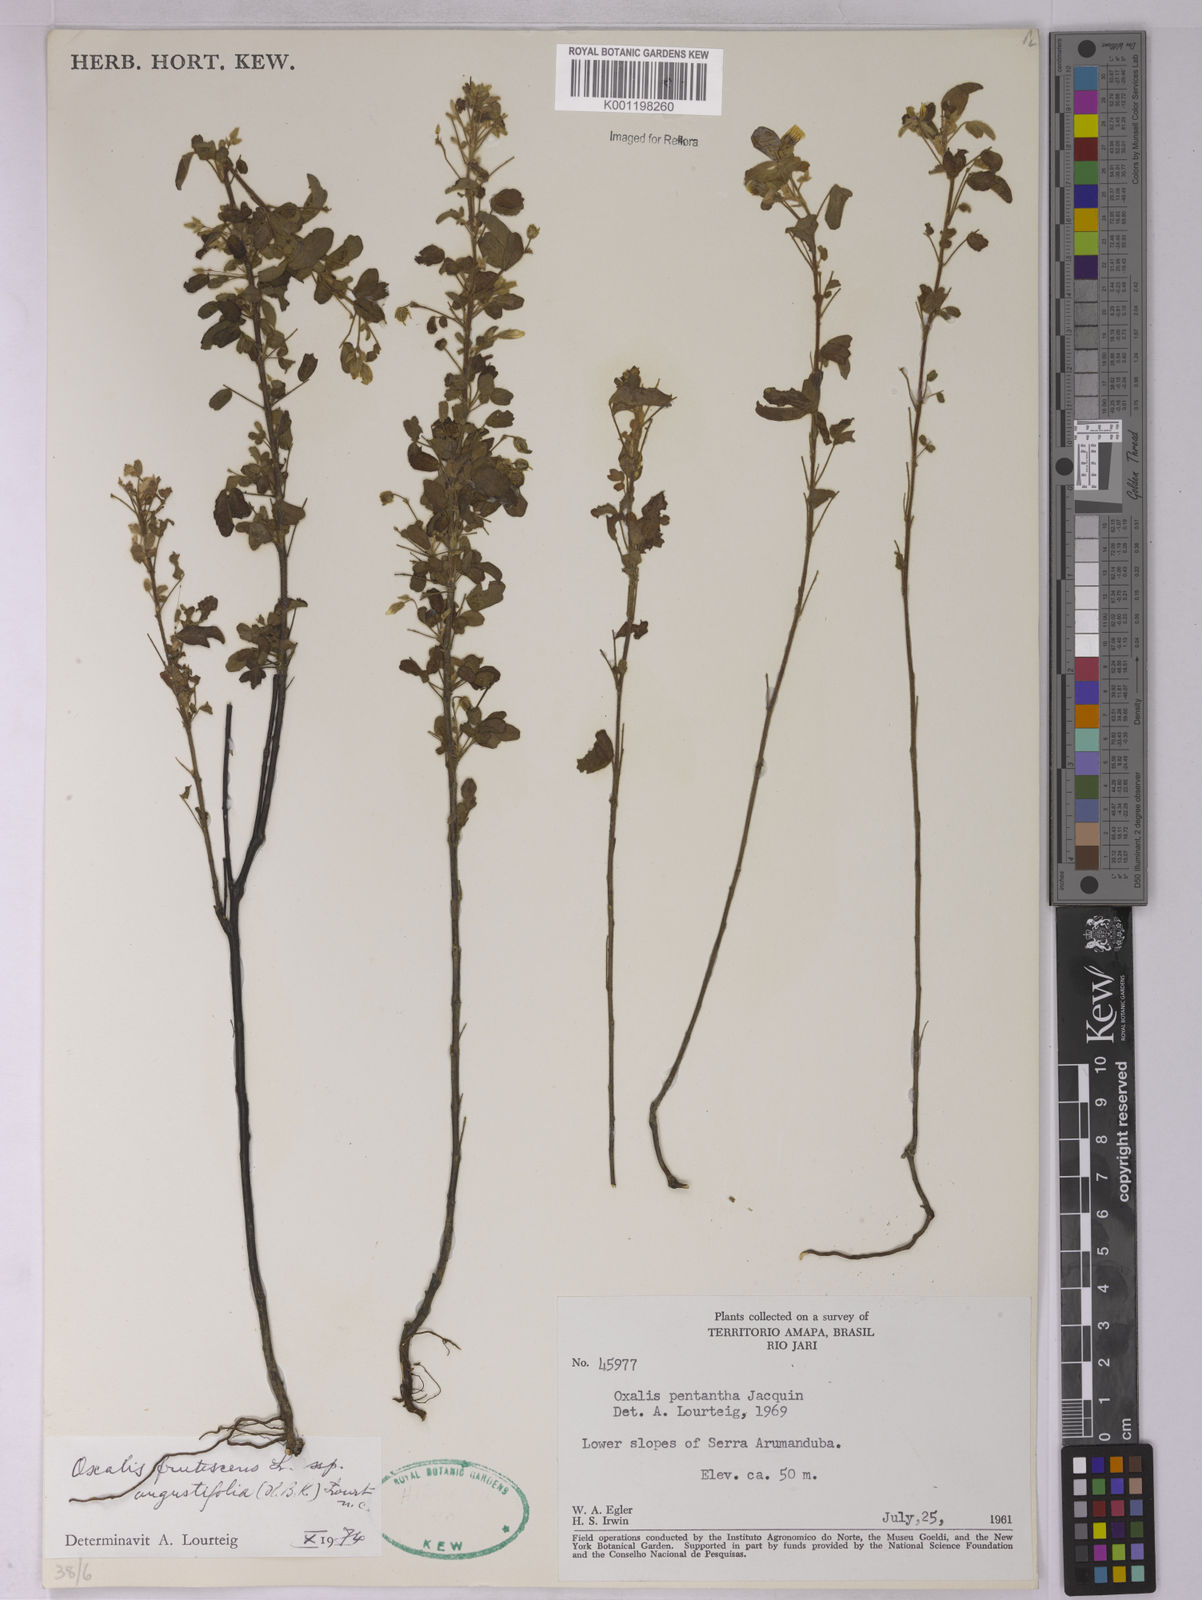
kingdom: Plantae
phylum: Tracheophyta
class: Magnoliopsida
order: Oxalidales
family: Oxalidaceae
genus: Oxalis
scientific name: Oxalis frutescens
